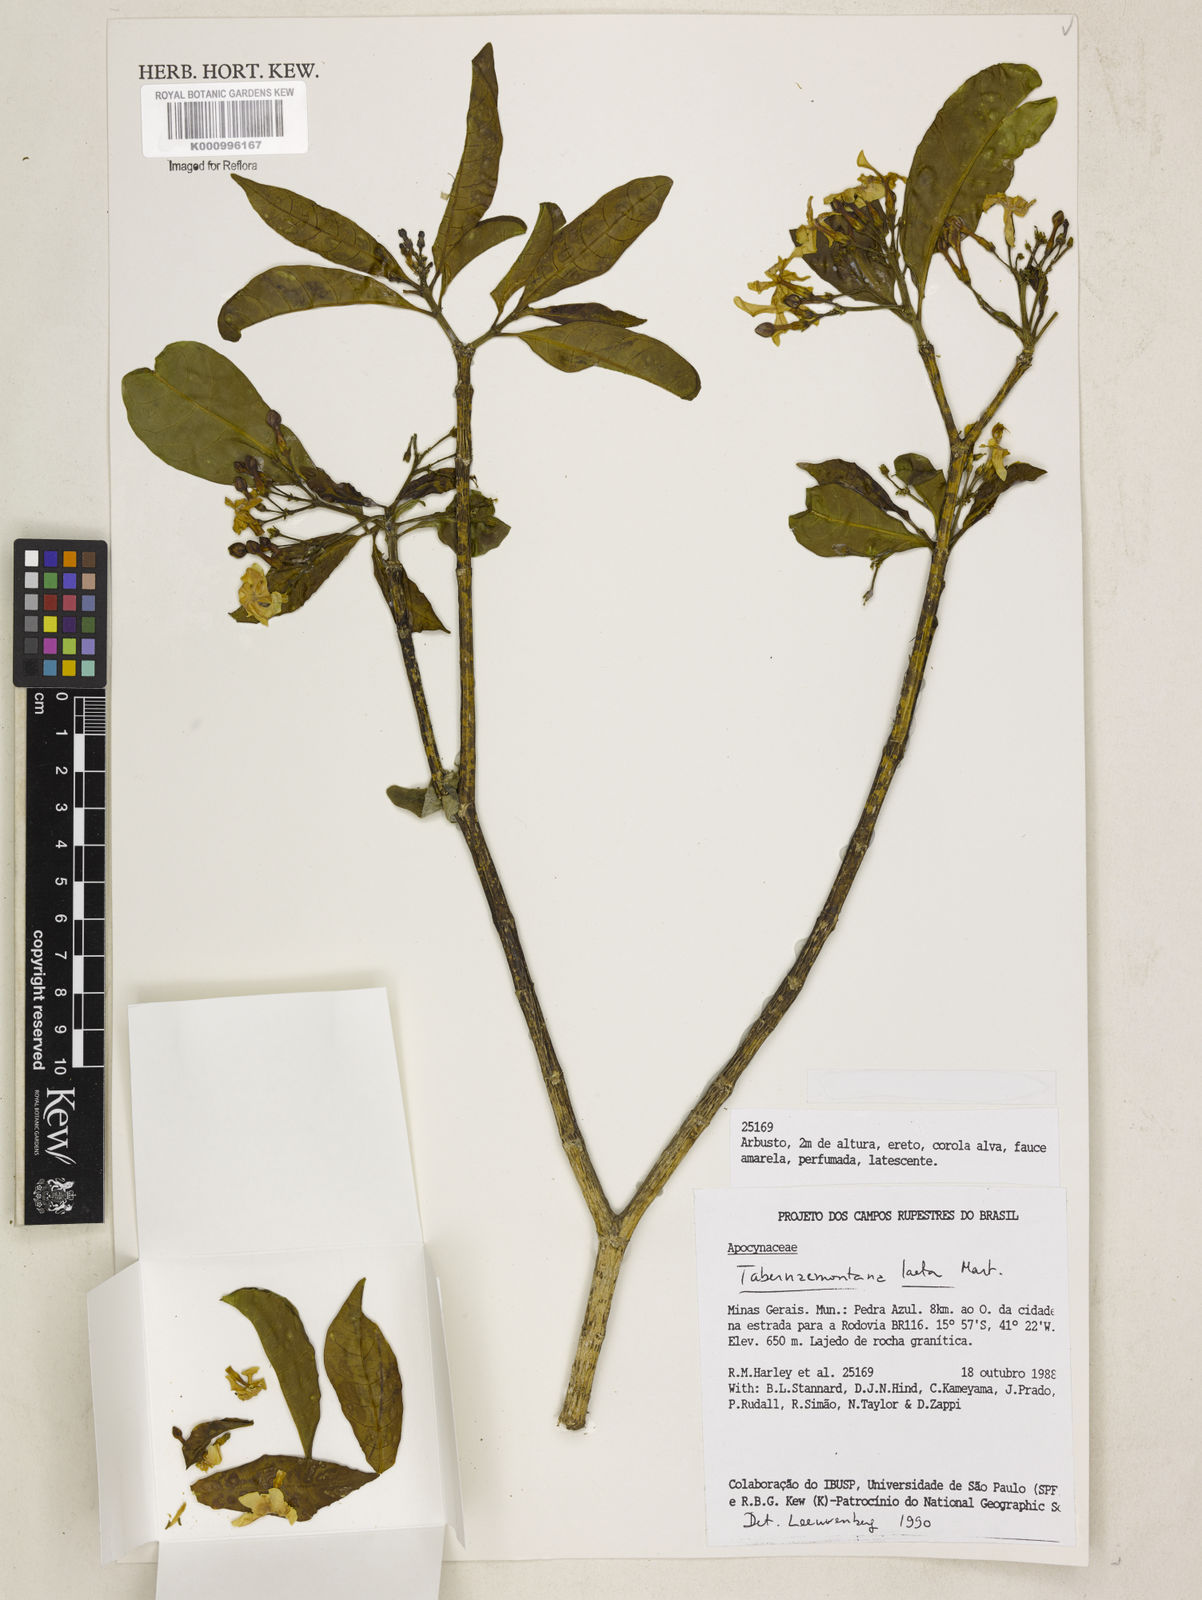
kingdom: Plantae
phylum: Tracheophyta
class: Magnoliopsida
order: Gentianales
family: Apocynaceae
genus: Tabernaemontana
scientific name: Tabernaemontana laeta
